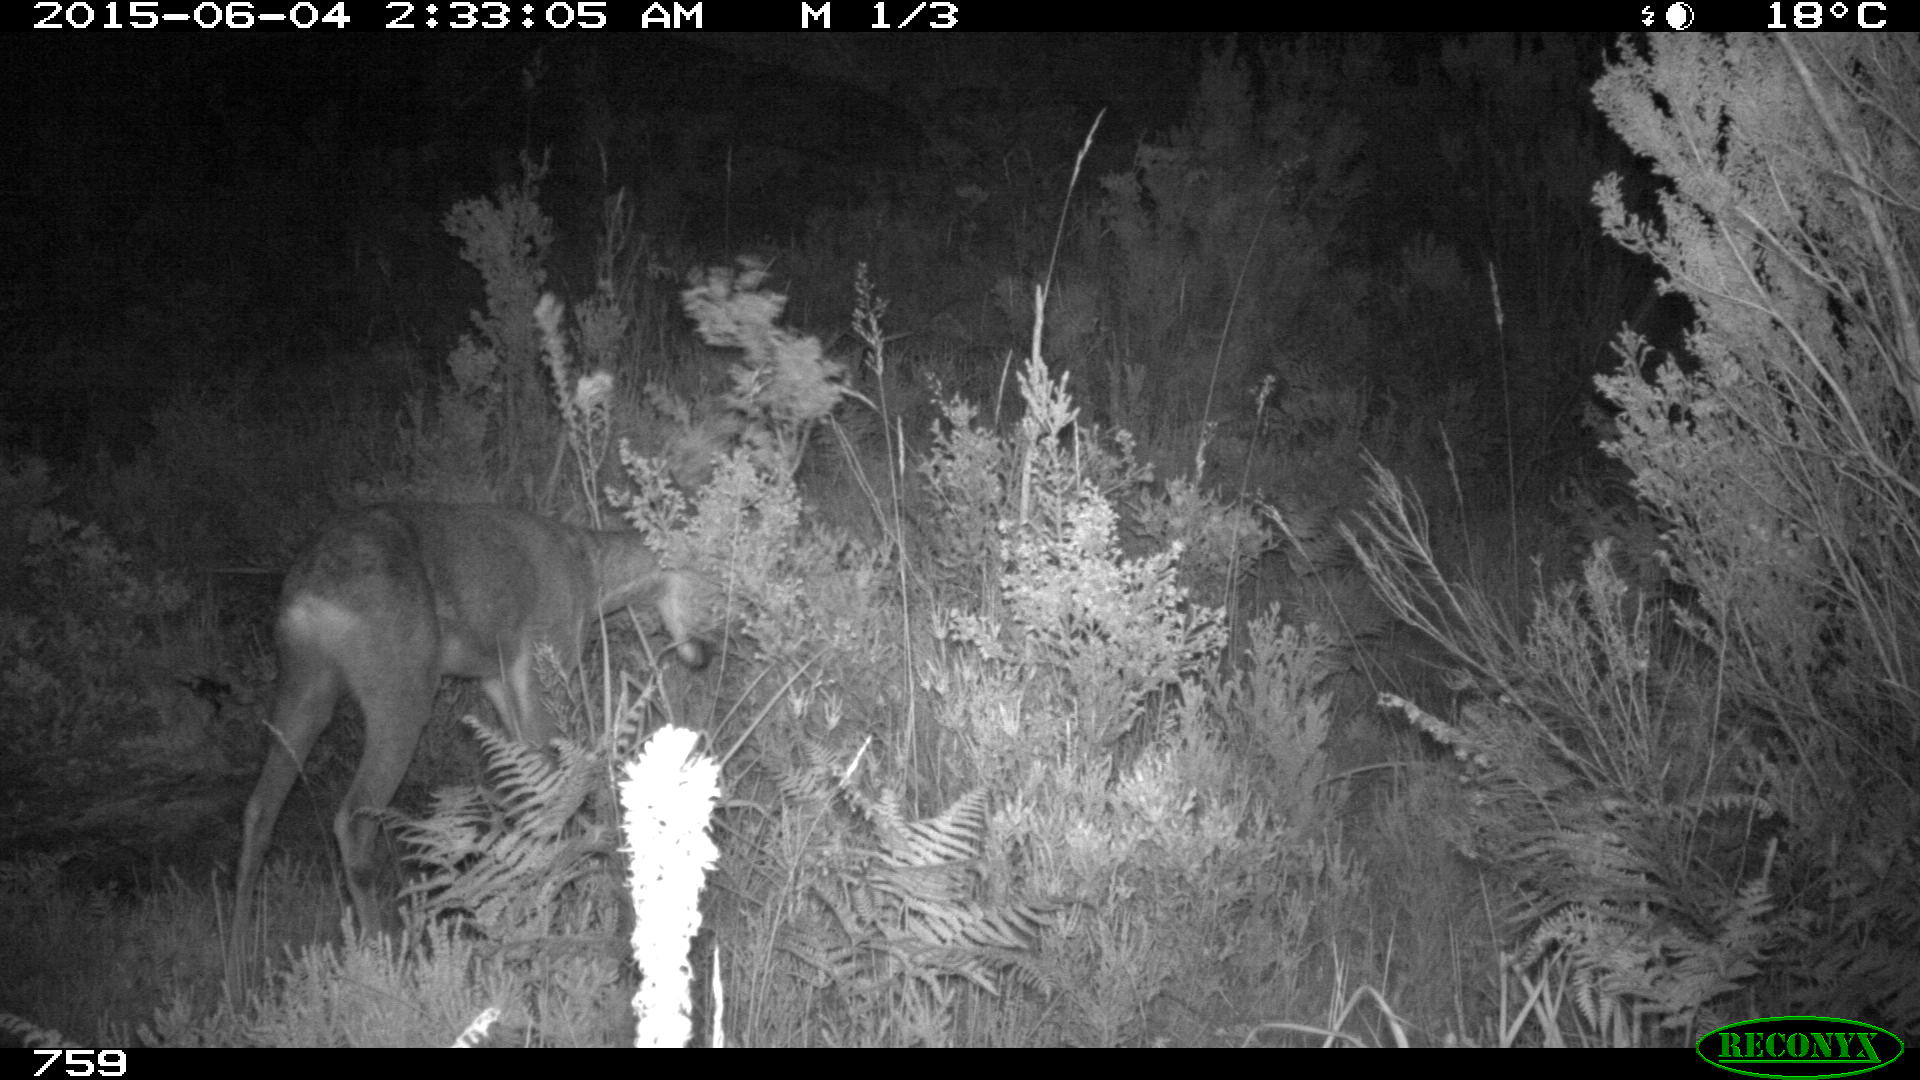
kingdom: Animalia
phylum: Chordata
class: Mammalia
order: Artiodactyla
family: Cervidae
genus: Capreolus
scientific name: Capreolus capreolus
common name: Western roe deer
